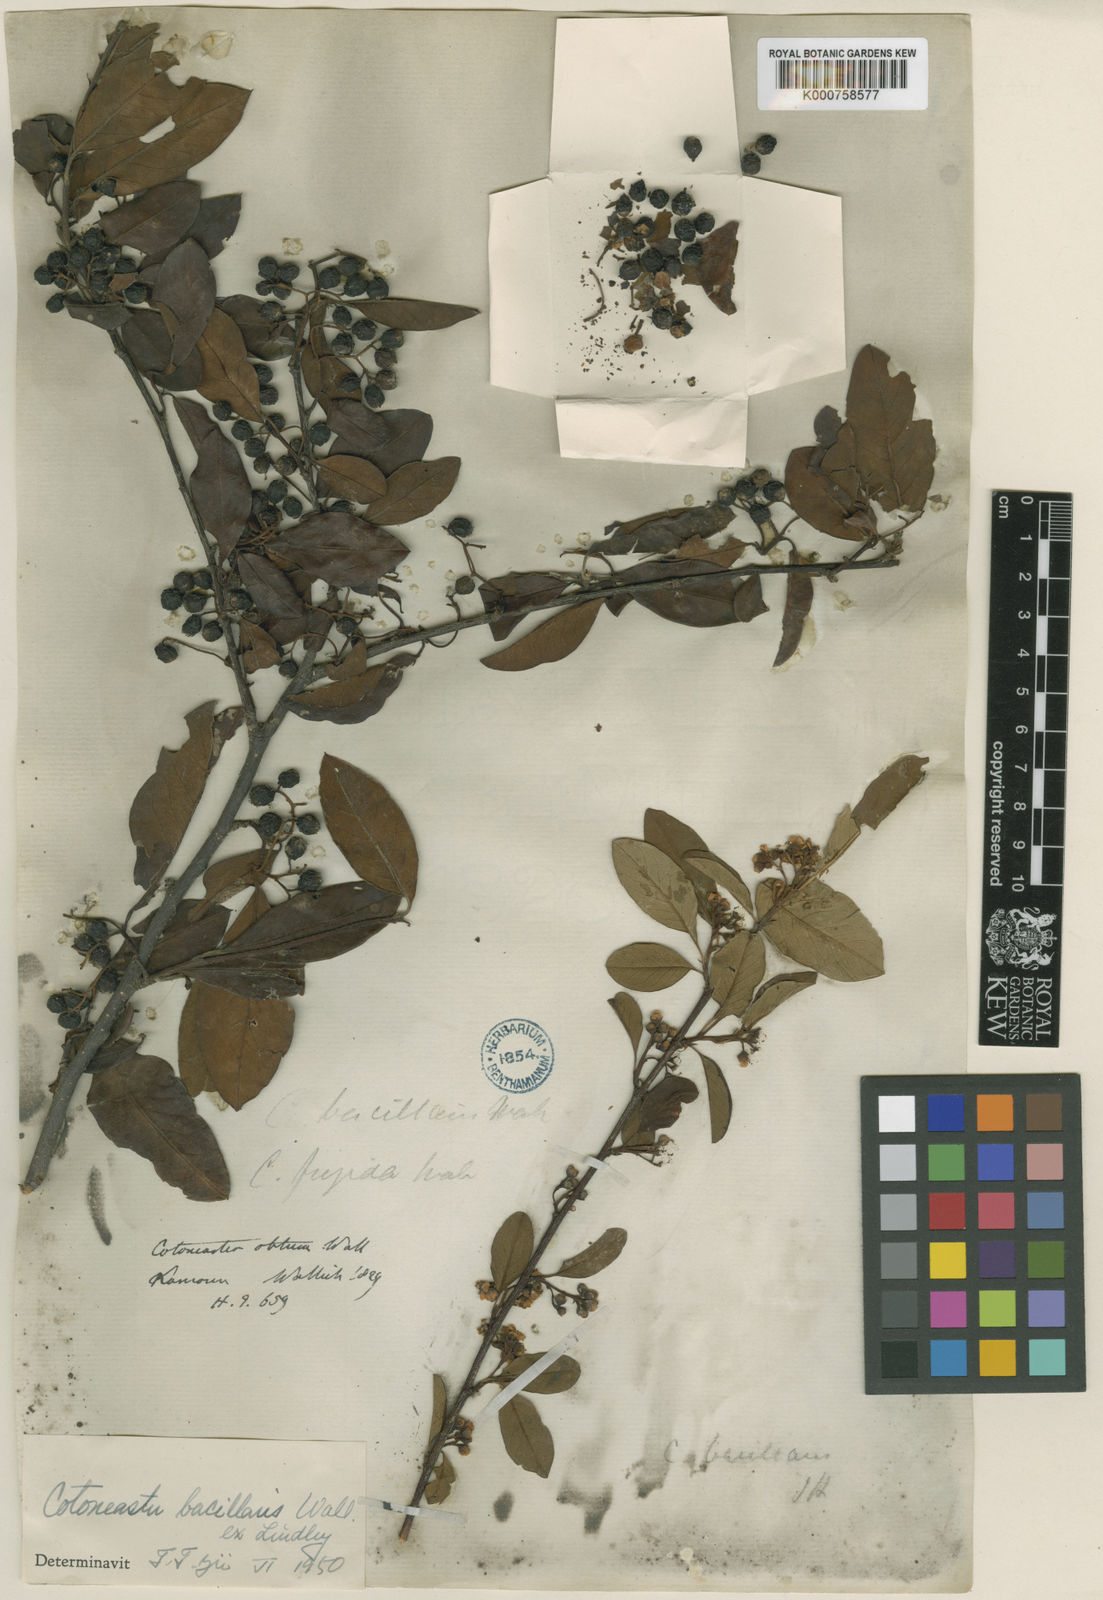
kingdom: Plantae
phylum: Tracheophyta
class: Magnoliopsida
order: Rosales
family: Rosaceae
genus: Cotoneaster
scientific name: Cotoneaster affinis
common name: Purpleberry cotoneaster
